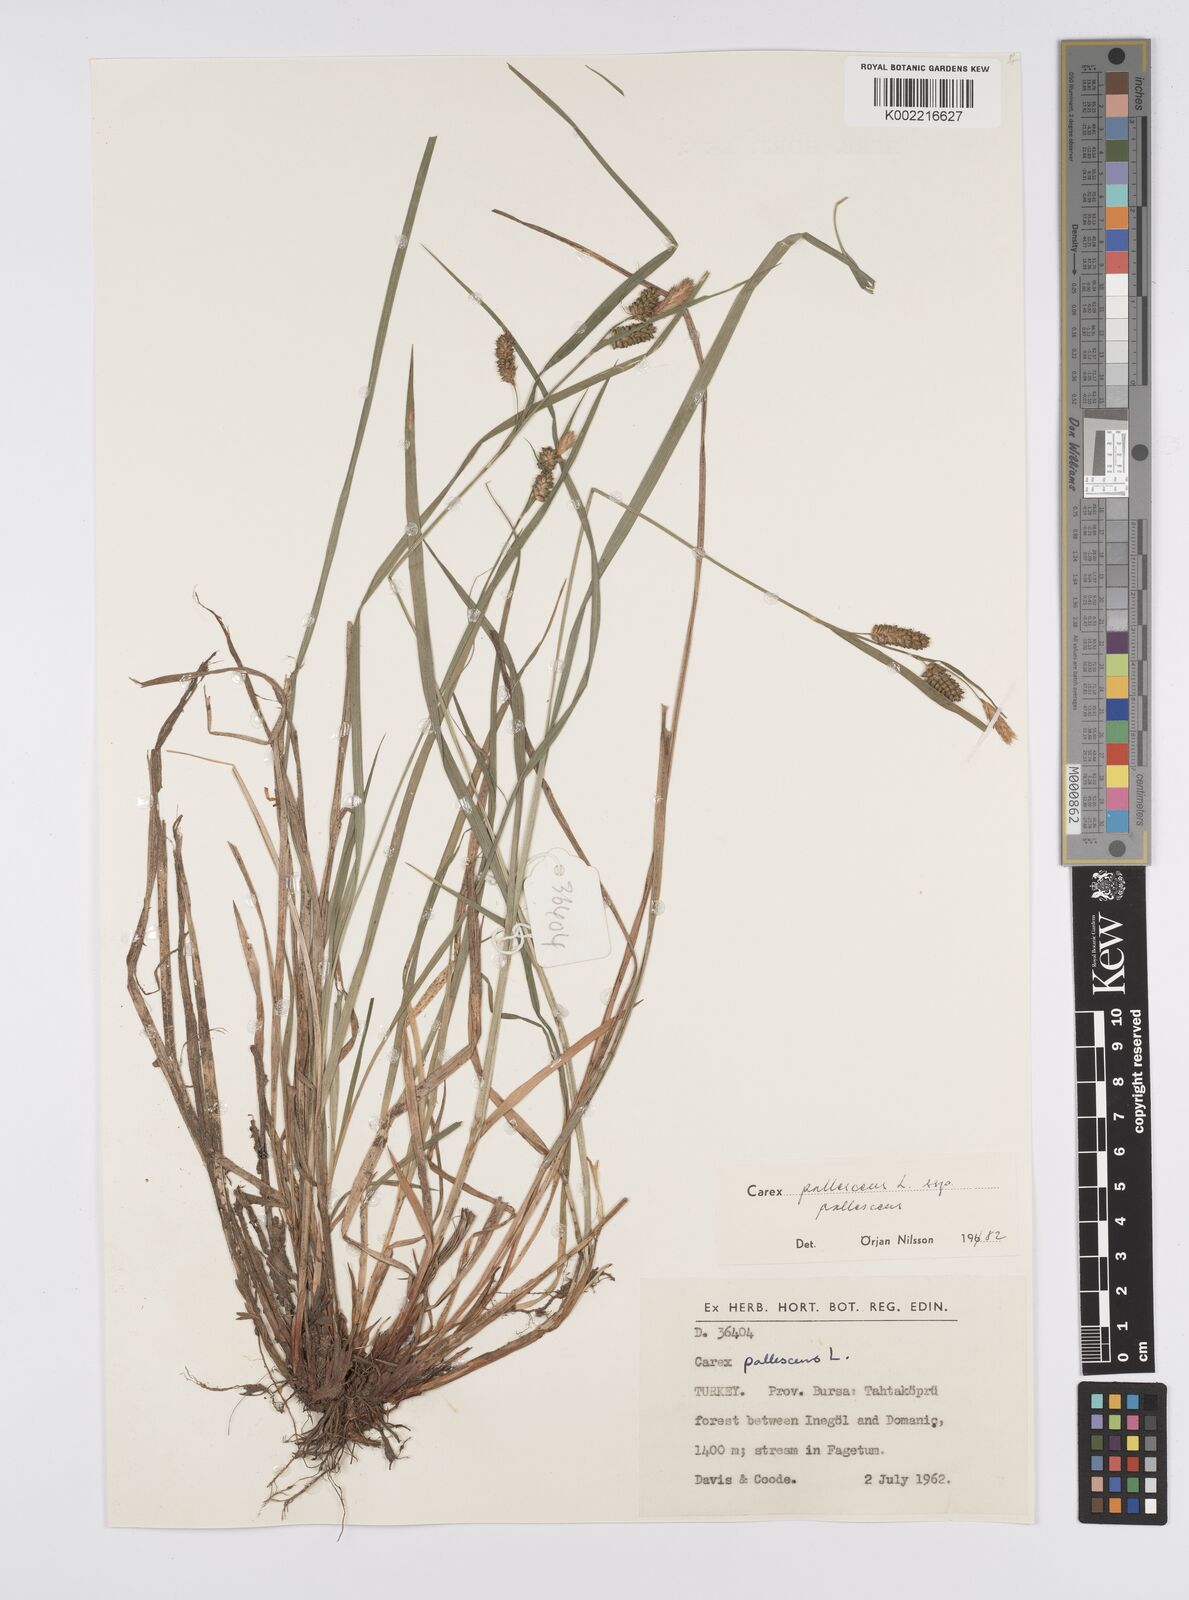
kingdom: Plantae
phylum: Tracheophyta
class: Liliopsida
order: Poales
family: Cyperaceae
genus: Carex
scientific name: Carex pallescens
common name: Pale sedge
